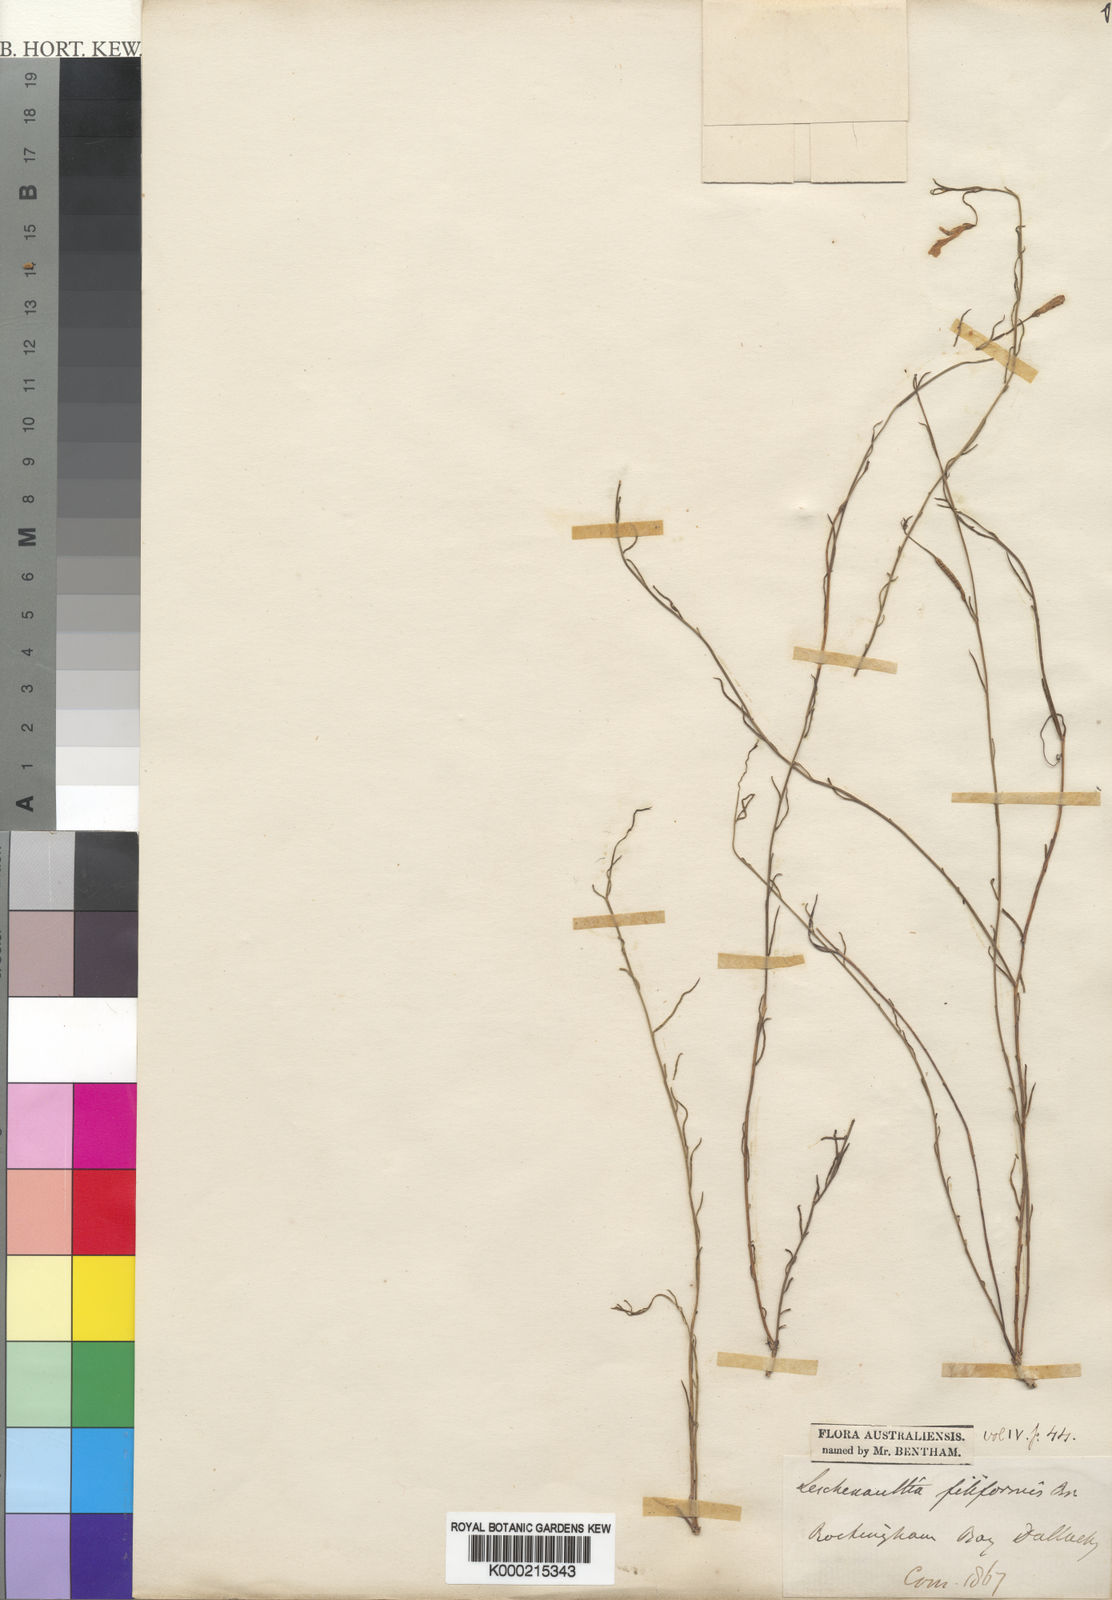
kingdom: Plantae
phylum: Tracheophyta
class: Magnoliopsida
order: Asterales
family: Goodeniaceae
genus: Leschenaultia
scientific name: Leschenaultia filiformis
